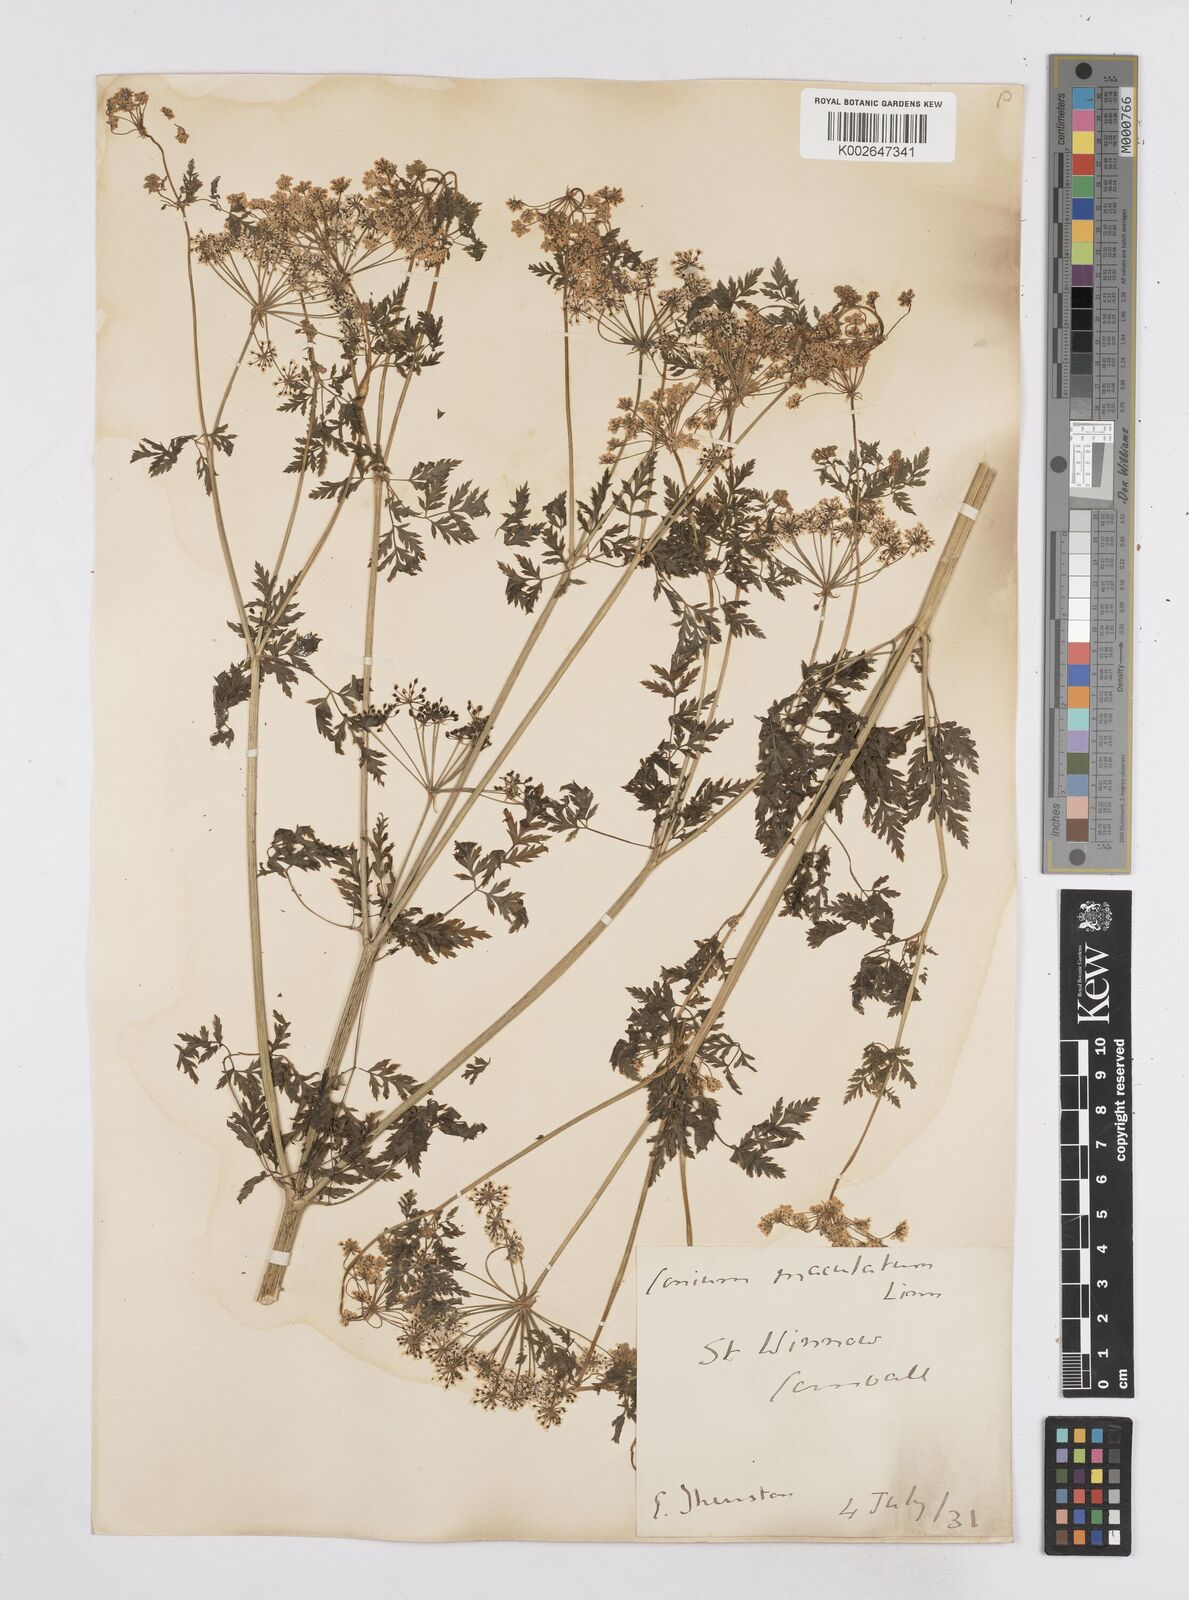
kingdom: Plantae
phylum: Tracheophyta
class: Magnoliopsida
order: Apiales
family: Apiaceae
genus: Conium
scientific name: Conium maculatum
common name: Hemlock
